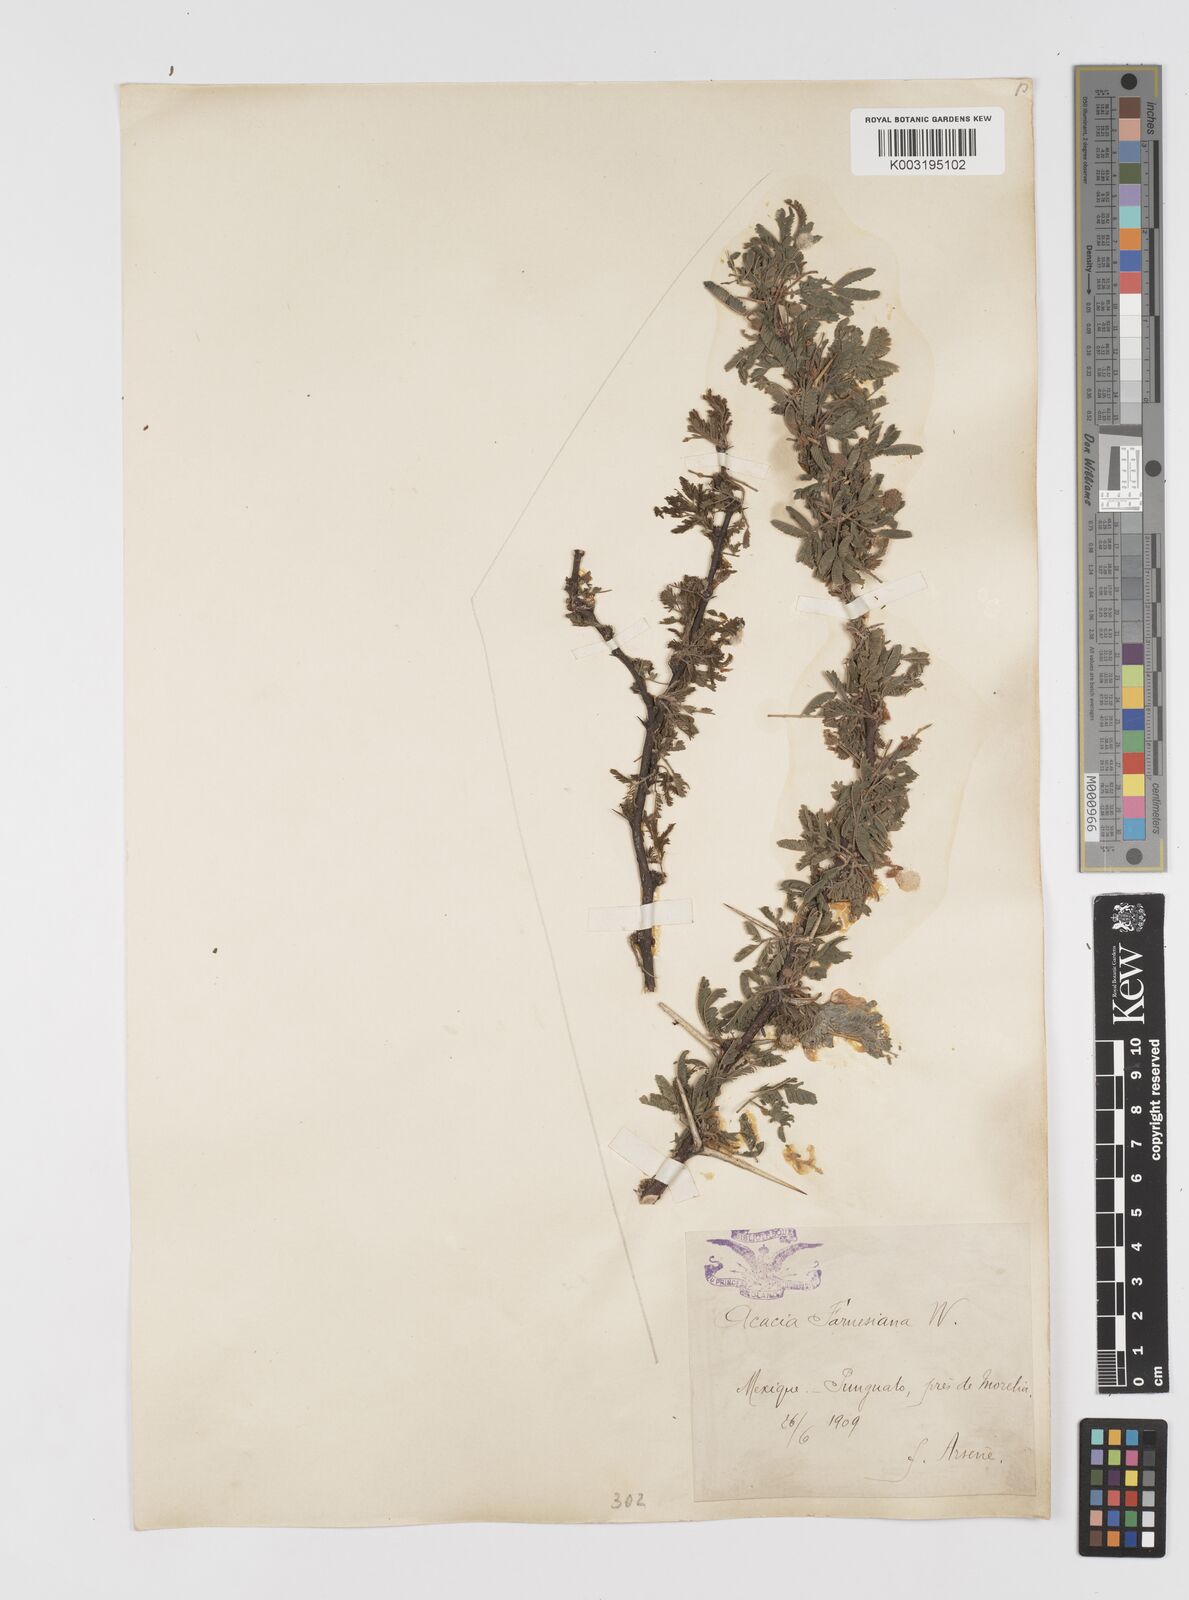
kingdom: Plantae
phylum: Tracheophyta
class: Magnoliopsida
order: Fabales
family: Fabaceae
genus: Vachellia
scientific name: Vachellia farnesiana
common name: Sweet acacia
